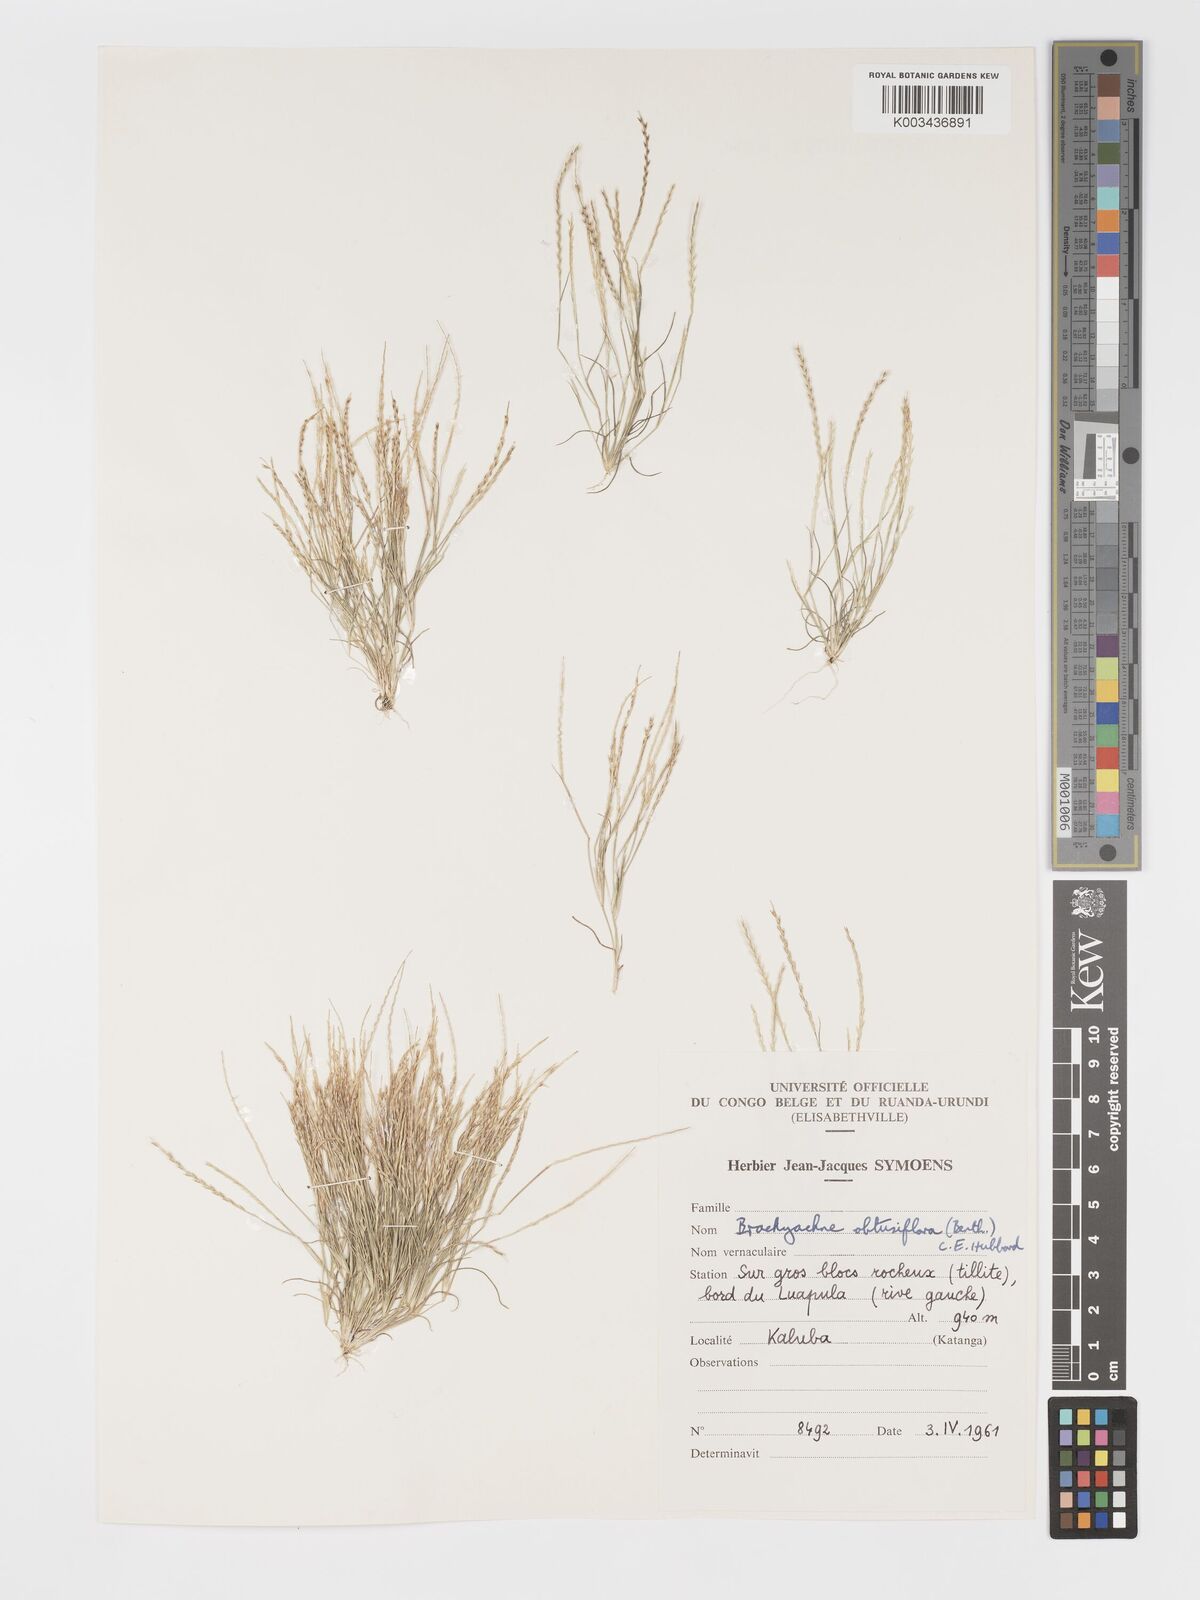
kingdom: Plantae
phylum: Tracheophyta
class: Liliopsida
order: Poales
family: Poaceae
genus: Micrachne
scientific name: Micrachne obtusiflora
